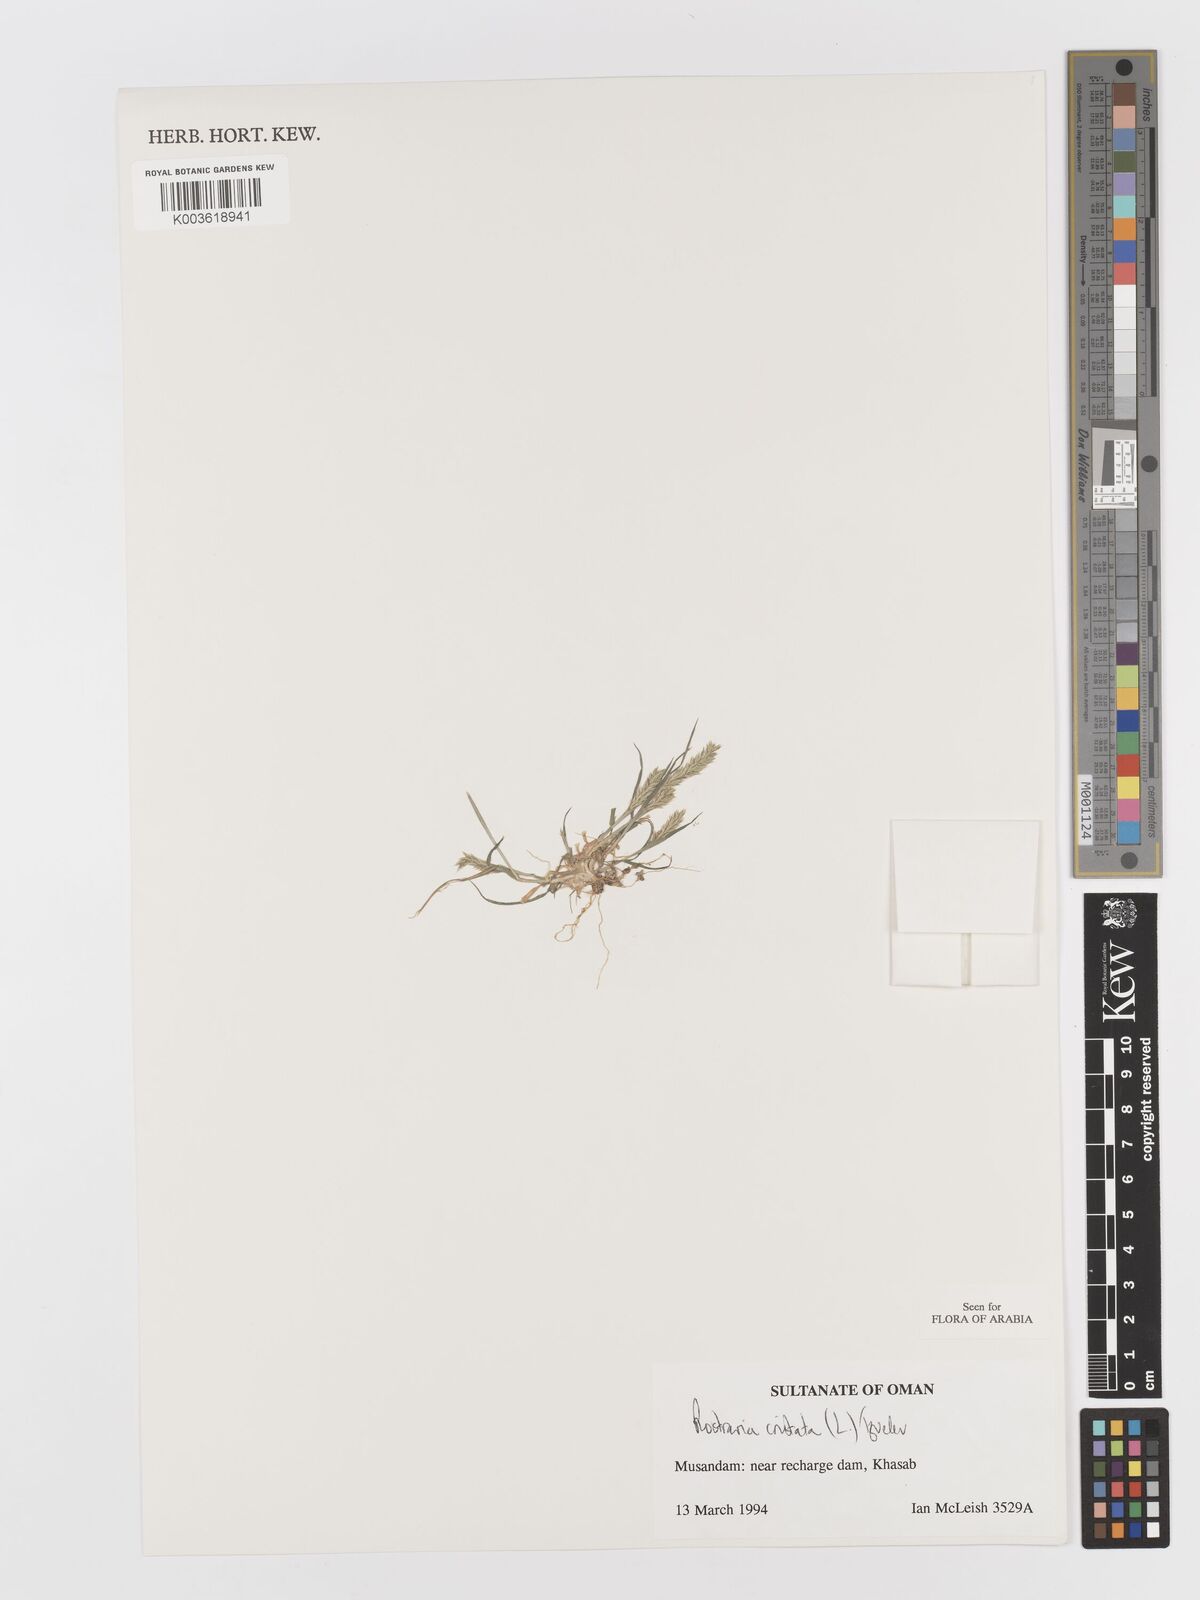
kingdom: Plantae
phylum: Tracheophyta
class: Liliopsida
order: Poales
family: Poaceae
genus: Rostraria
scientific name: Rostraria cristata
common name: Mediterranean hair-grass
